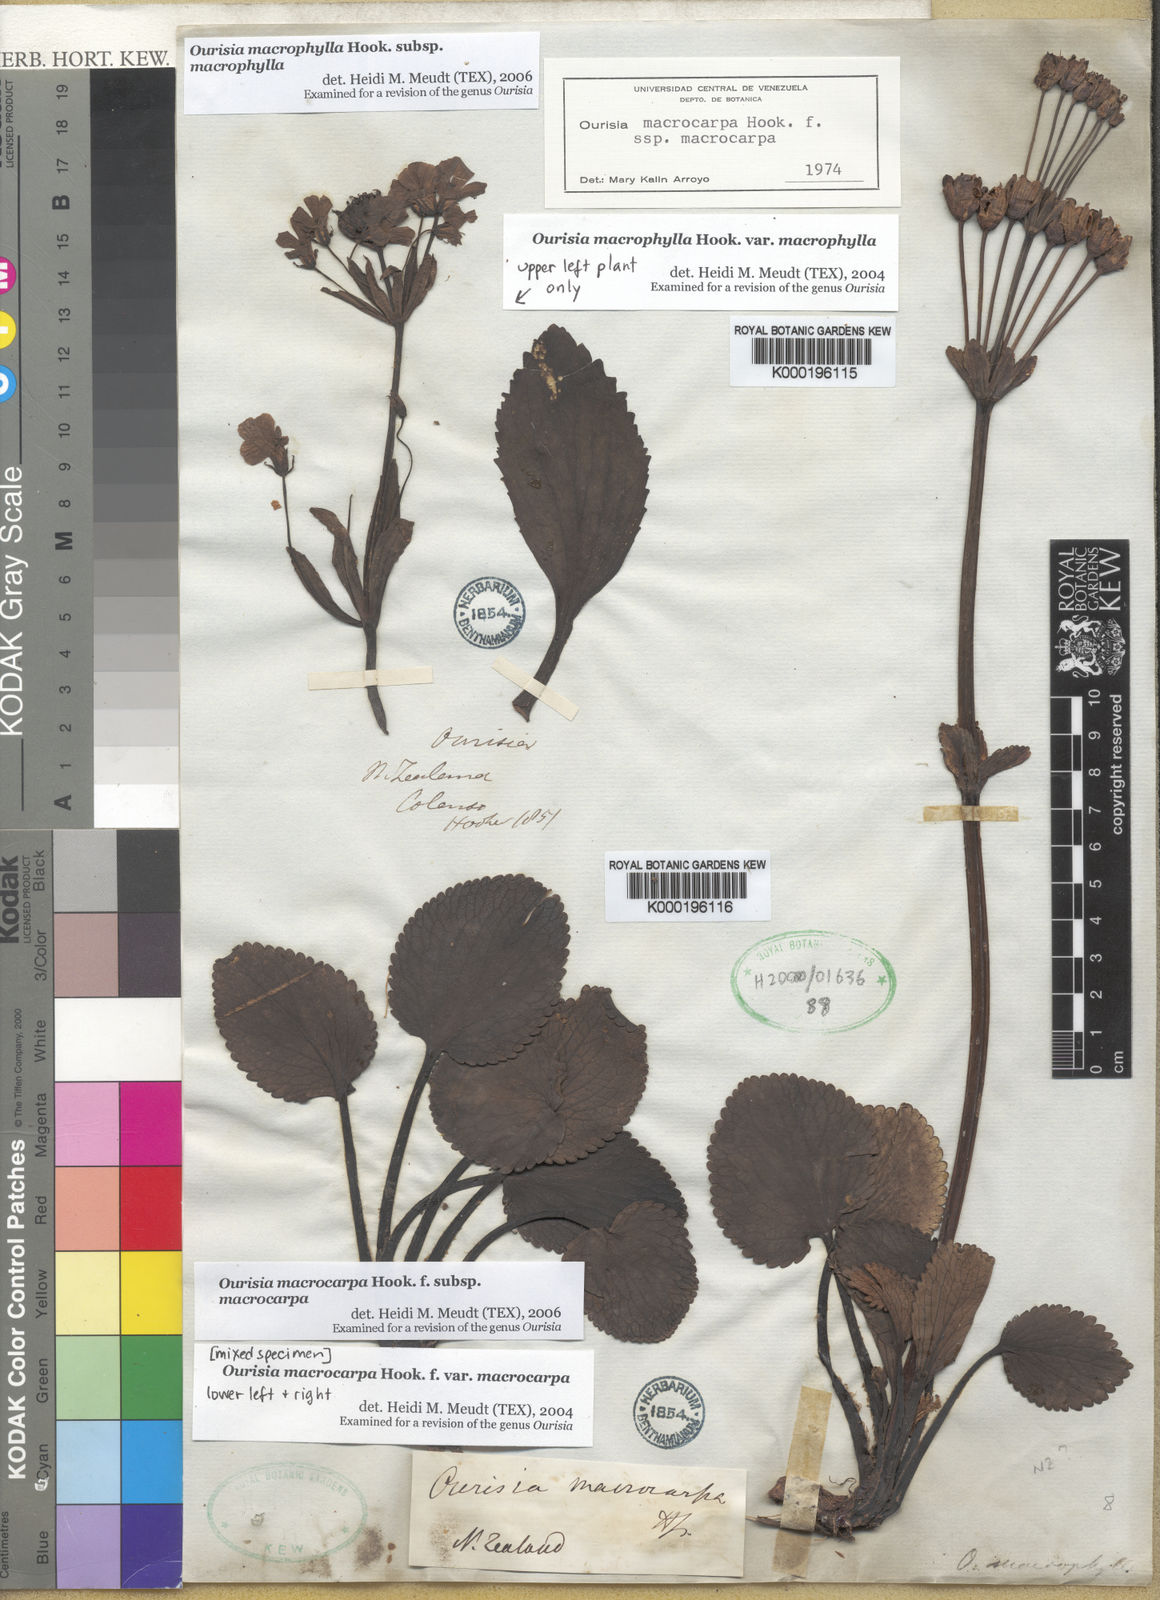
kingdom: Plantae
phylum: Tracheophyta
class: Magnoliopsida
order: Lamiales
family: Plantaginaceae
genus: Ourisia
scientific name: Ourisia macrophylla
